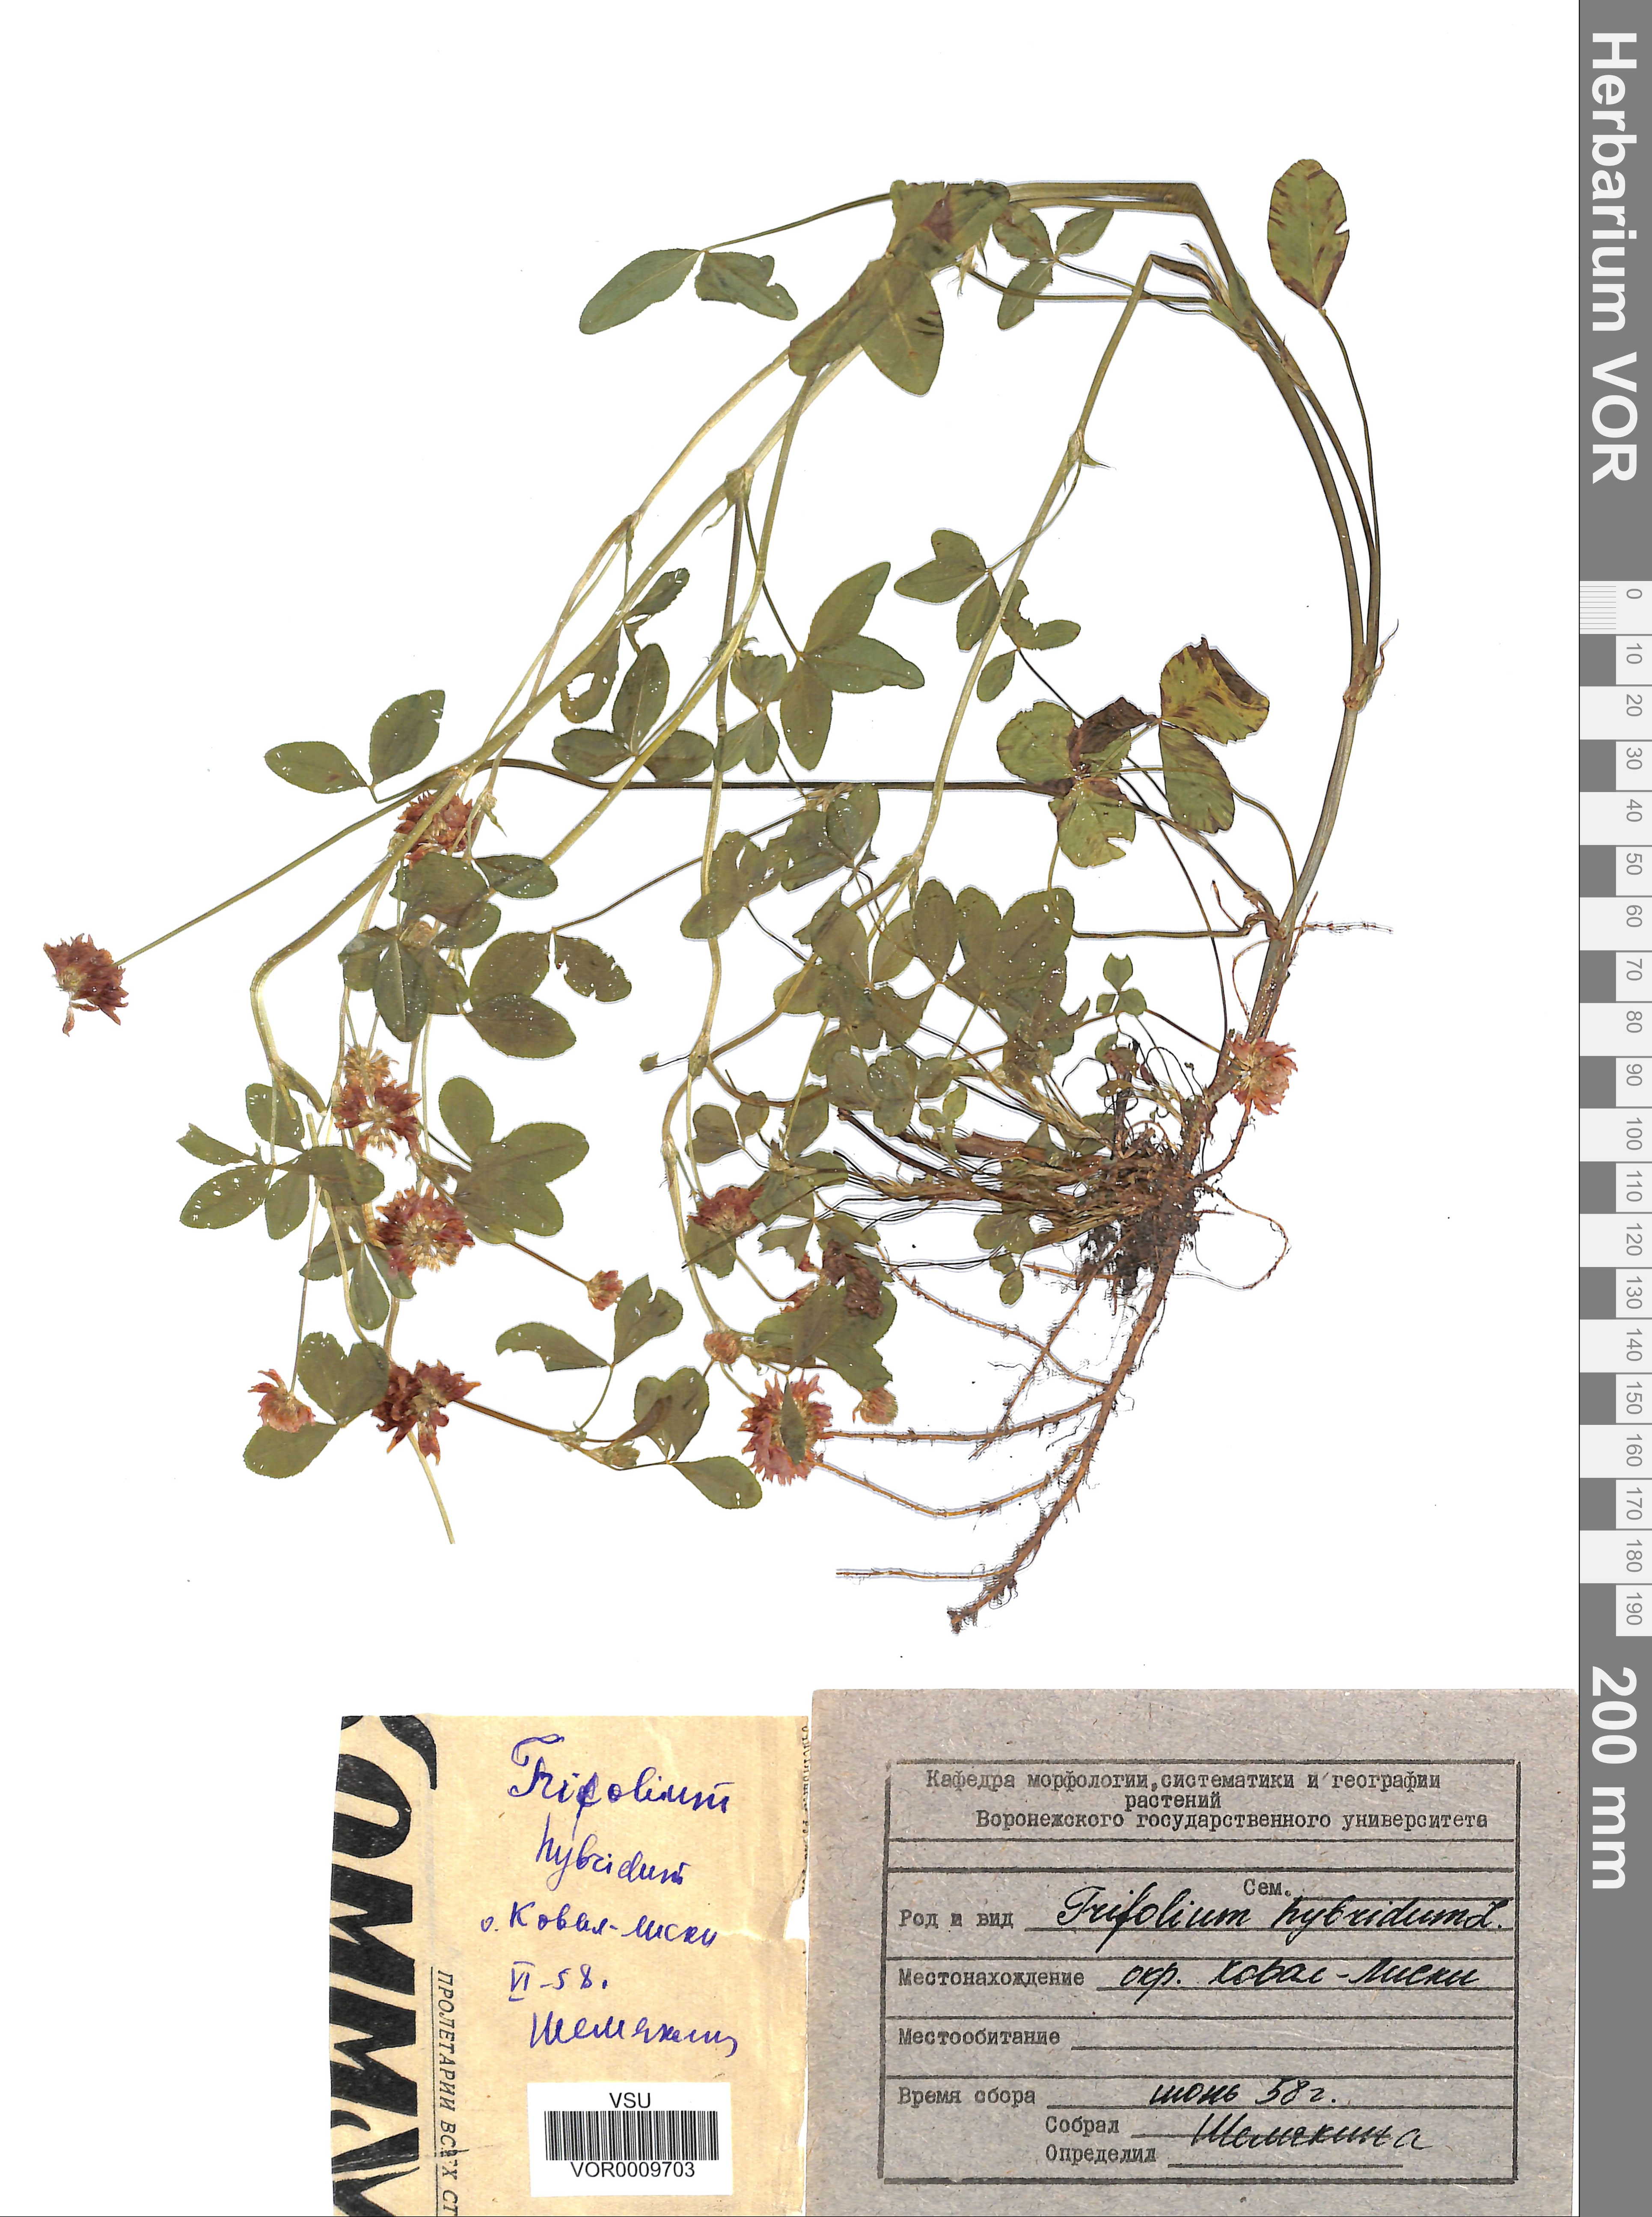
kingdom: Plantae
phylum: Tracheophyta
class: Magnoliopsida
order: Fabales
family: Fabaceae
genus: Trifolium
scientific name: Trifolium hybridum
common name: Alsike clover
